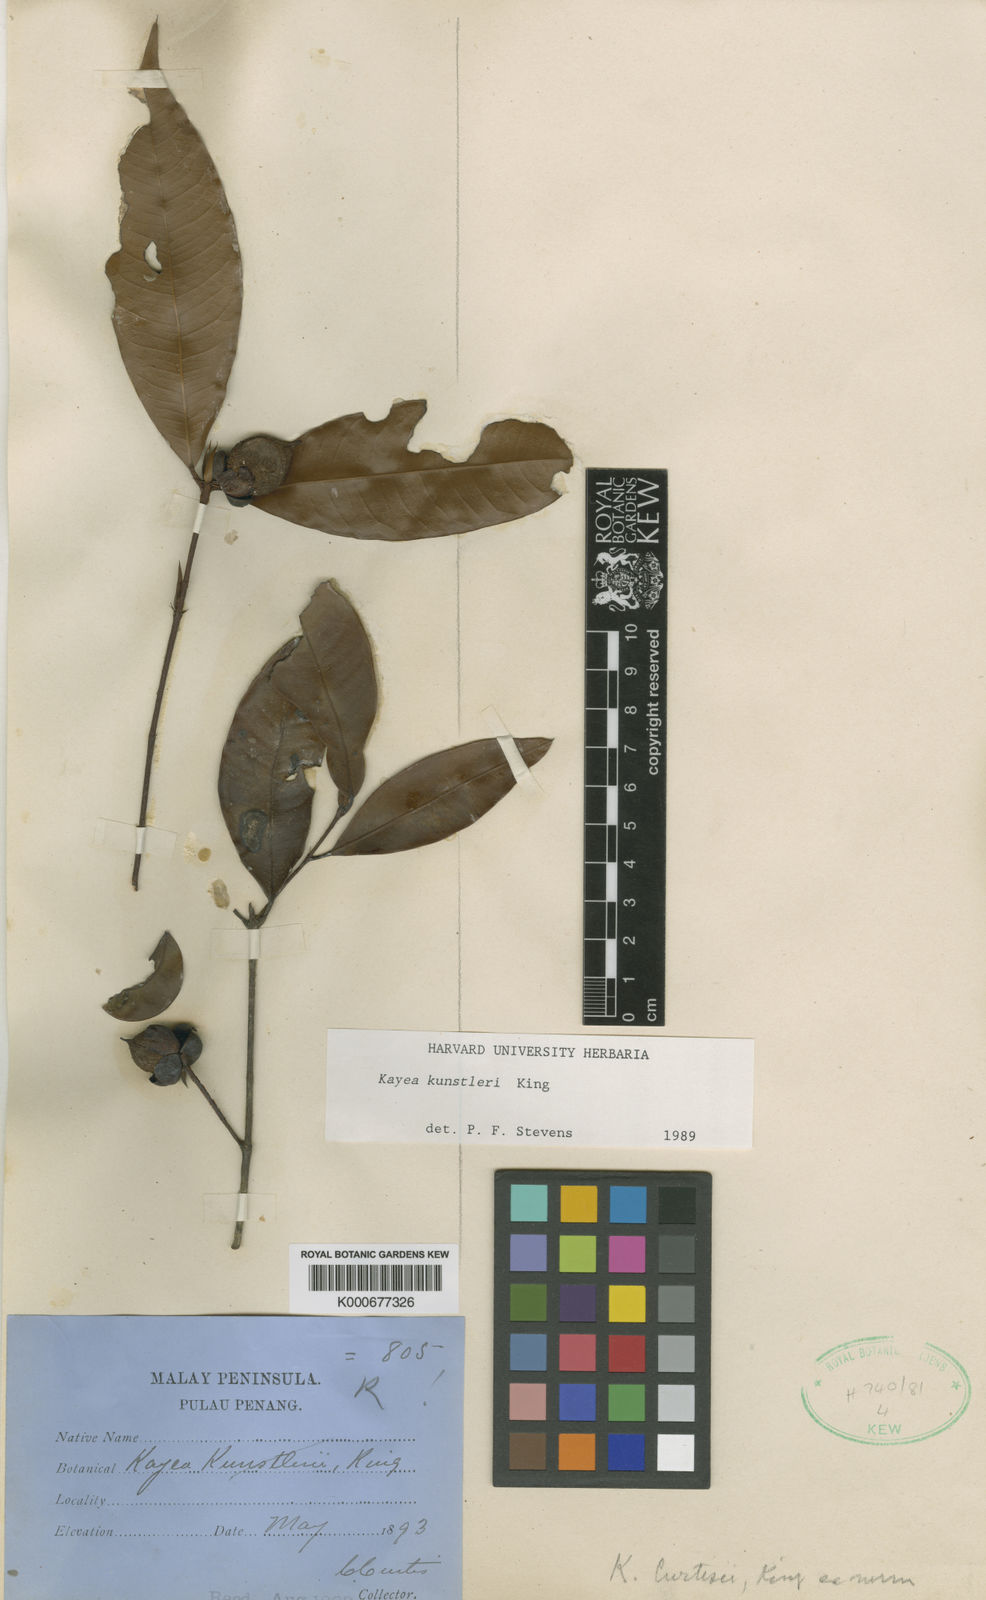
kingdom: Plantae
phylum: Tracheophyta
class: Magnoliopsida
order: Malpighiales
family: Calophyllaceae
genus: Kayea
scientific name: Kayea kunstleri
